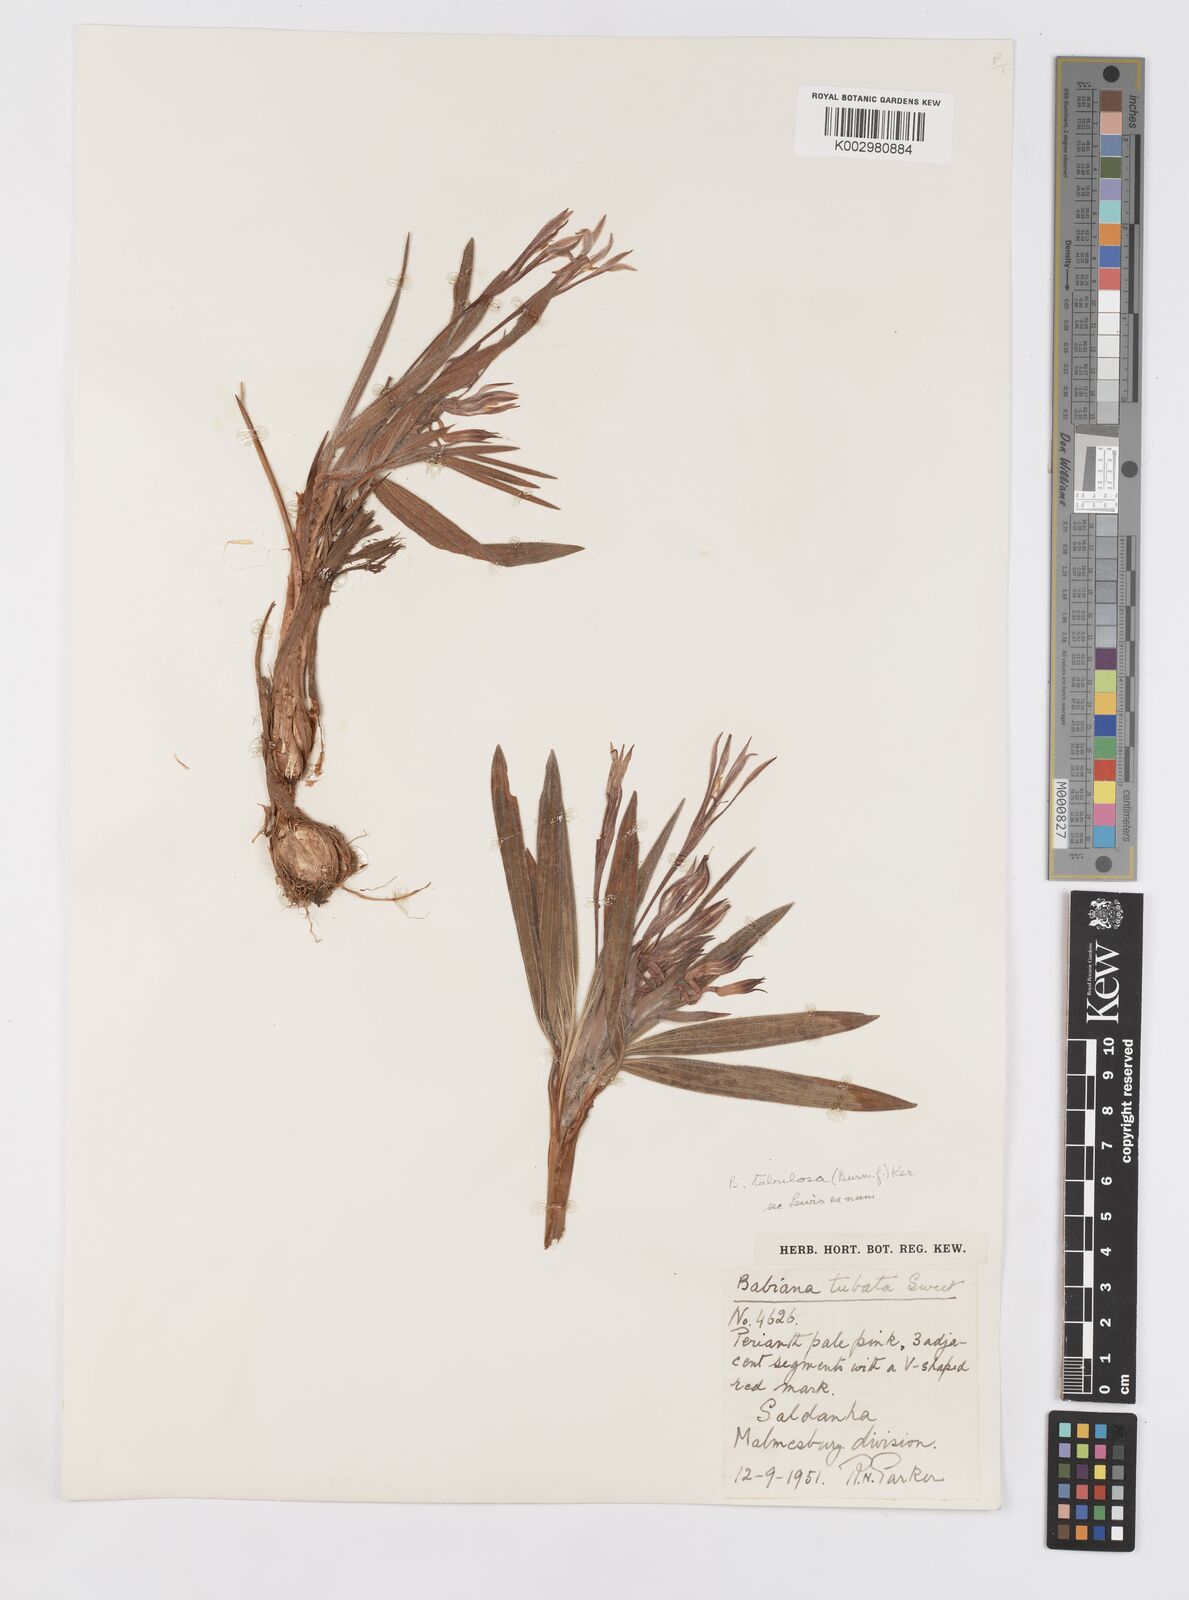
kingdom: Plantae
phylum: Tracheophyta
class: Liliopsida
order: Asparagales
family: Iridaceae
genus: Babiana
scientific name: Babiana tubulosa
